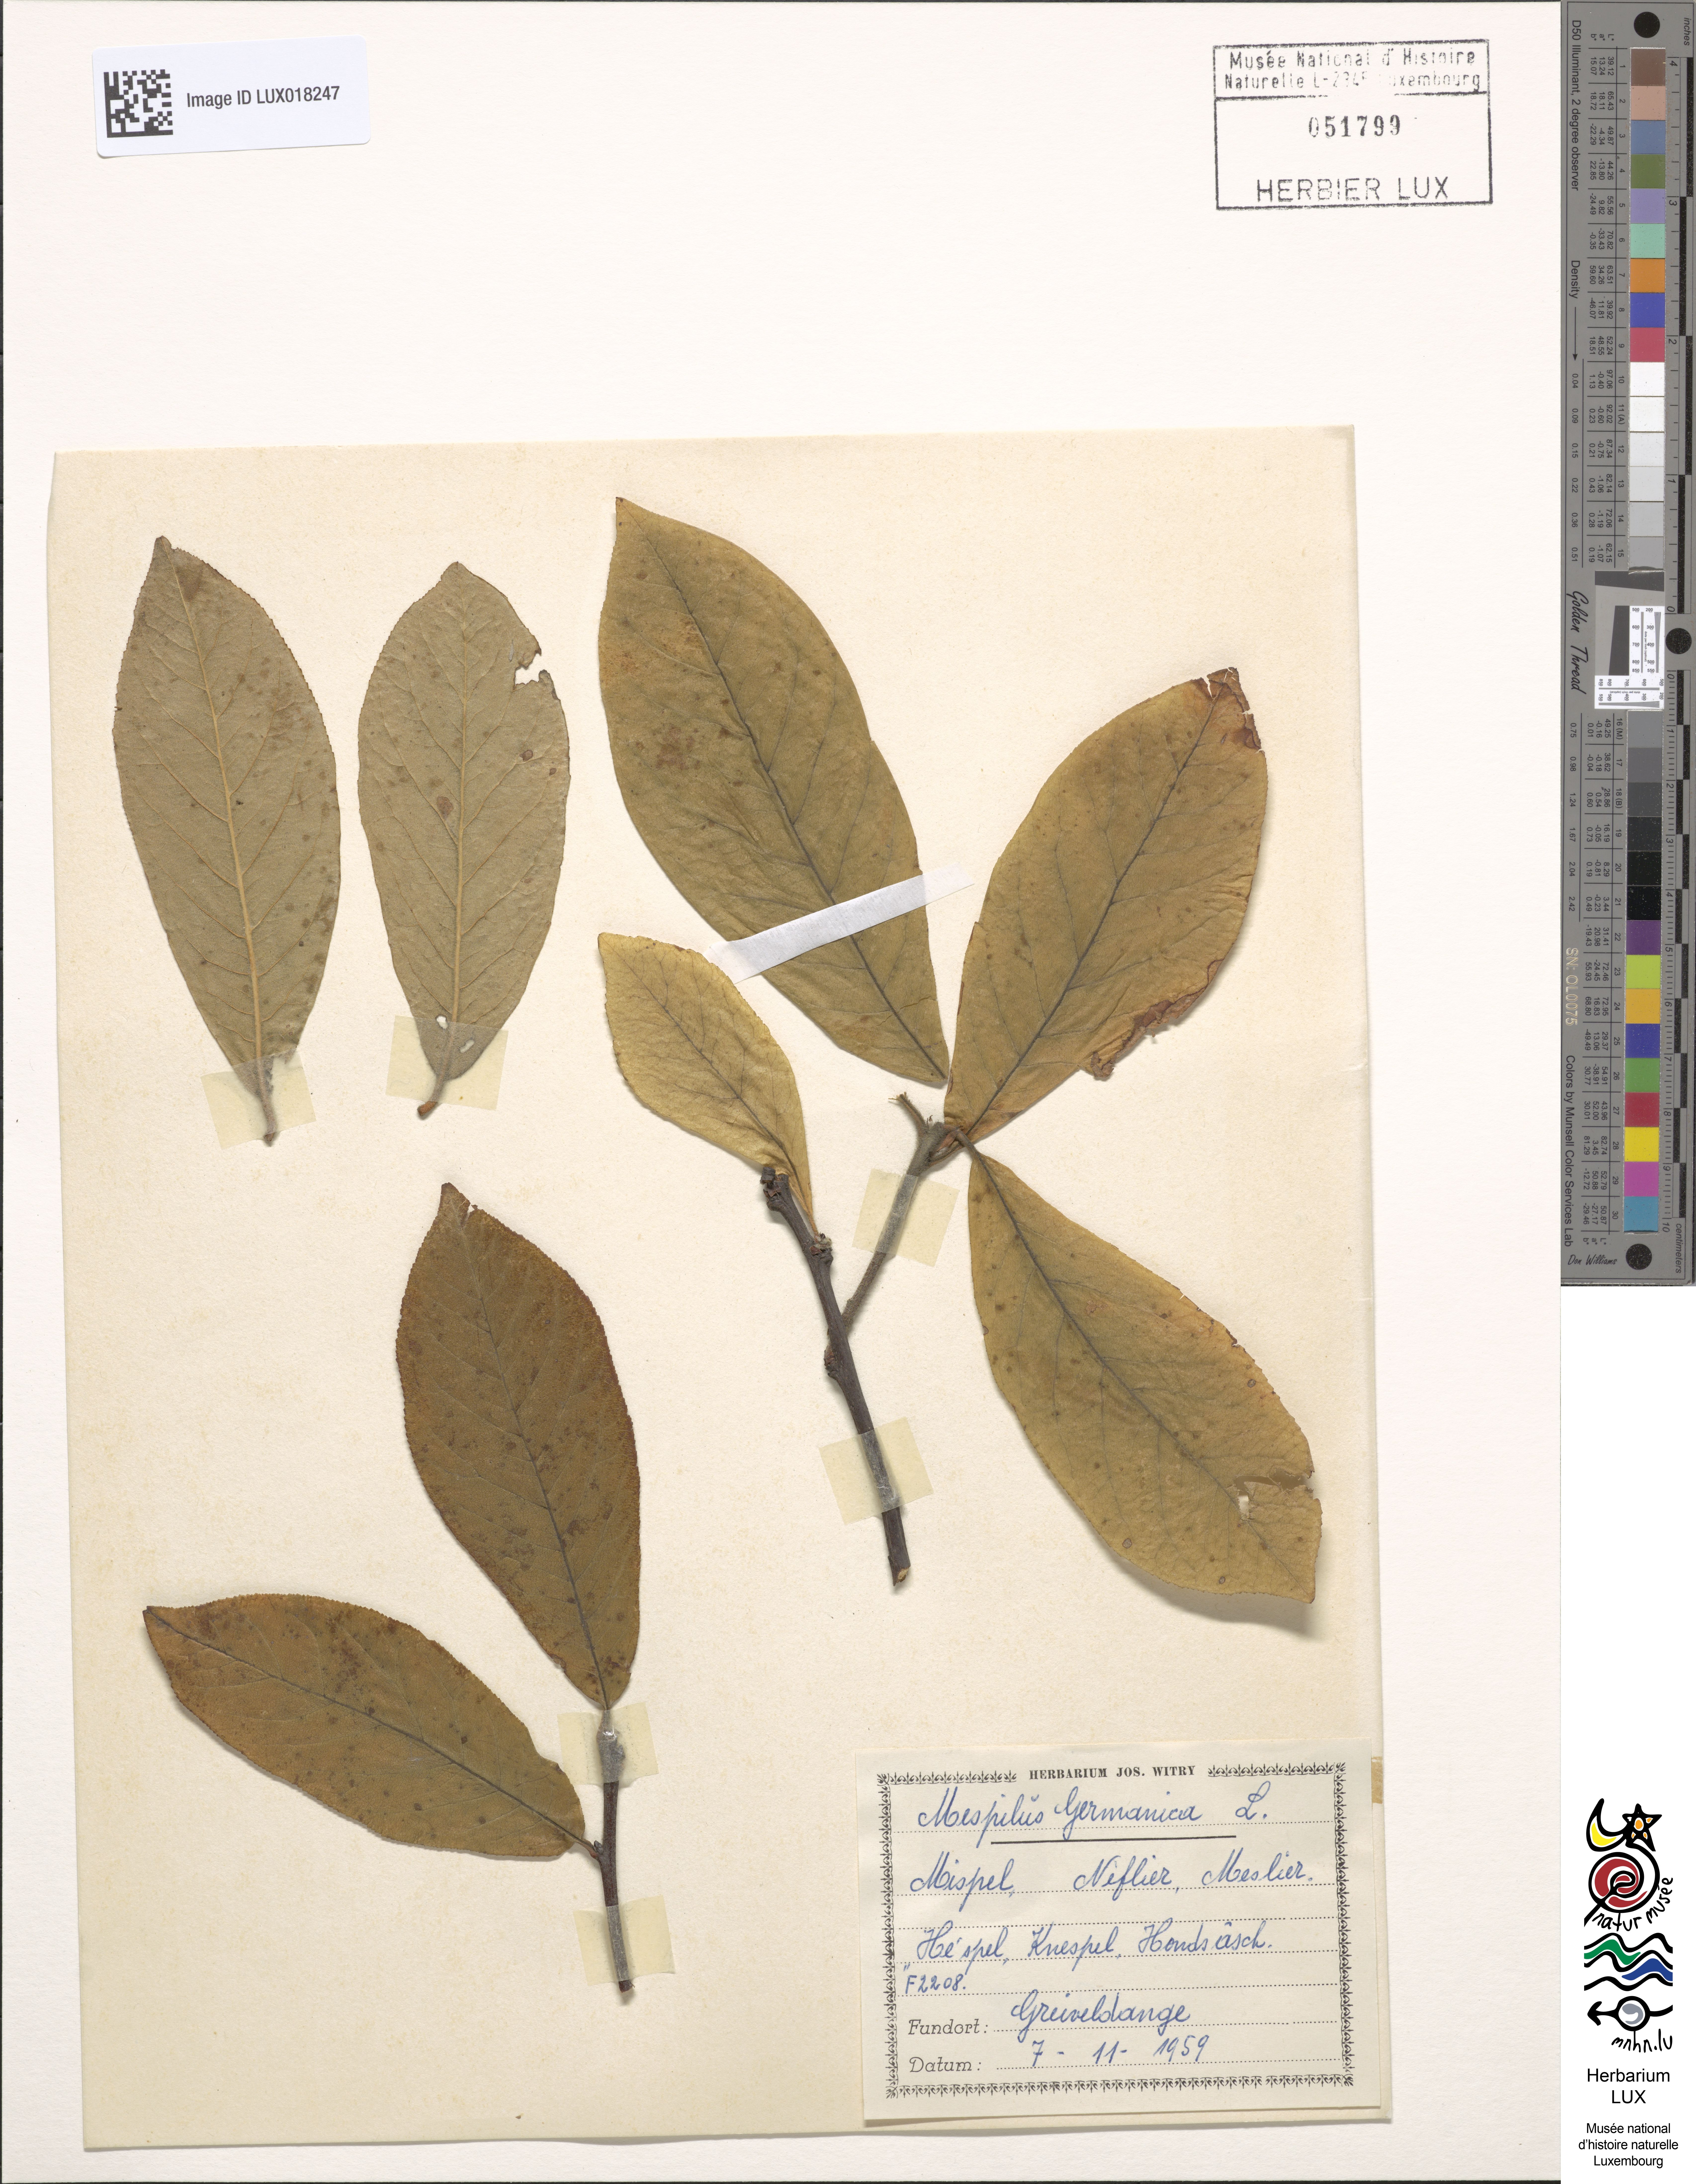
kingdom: Plantae
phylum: Tracheophyta
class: Magnoliopsida
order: Rosales
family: Rosaceae
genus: Mespilus
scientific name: Mespilus germanica
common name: Medlar
